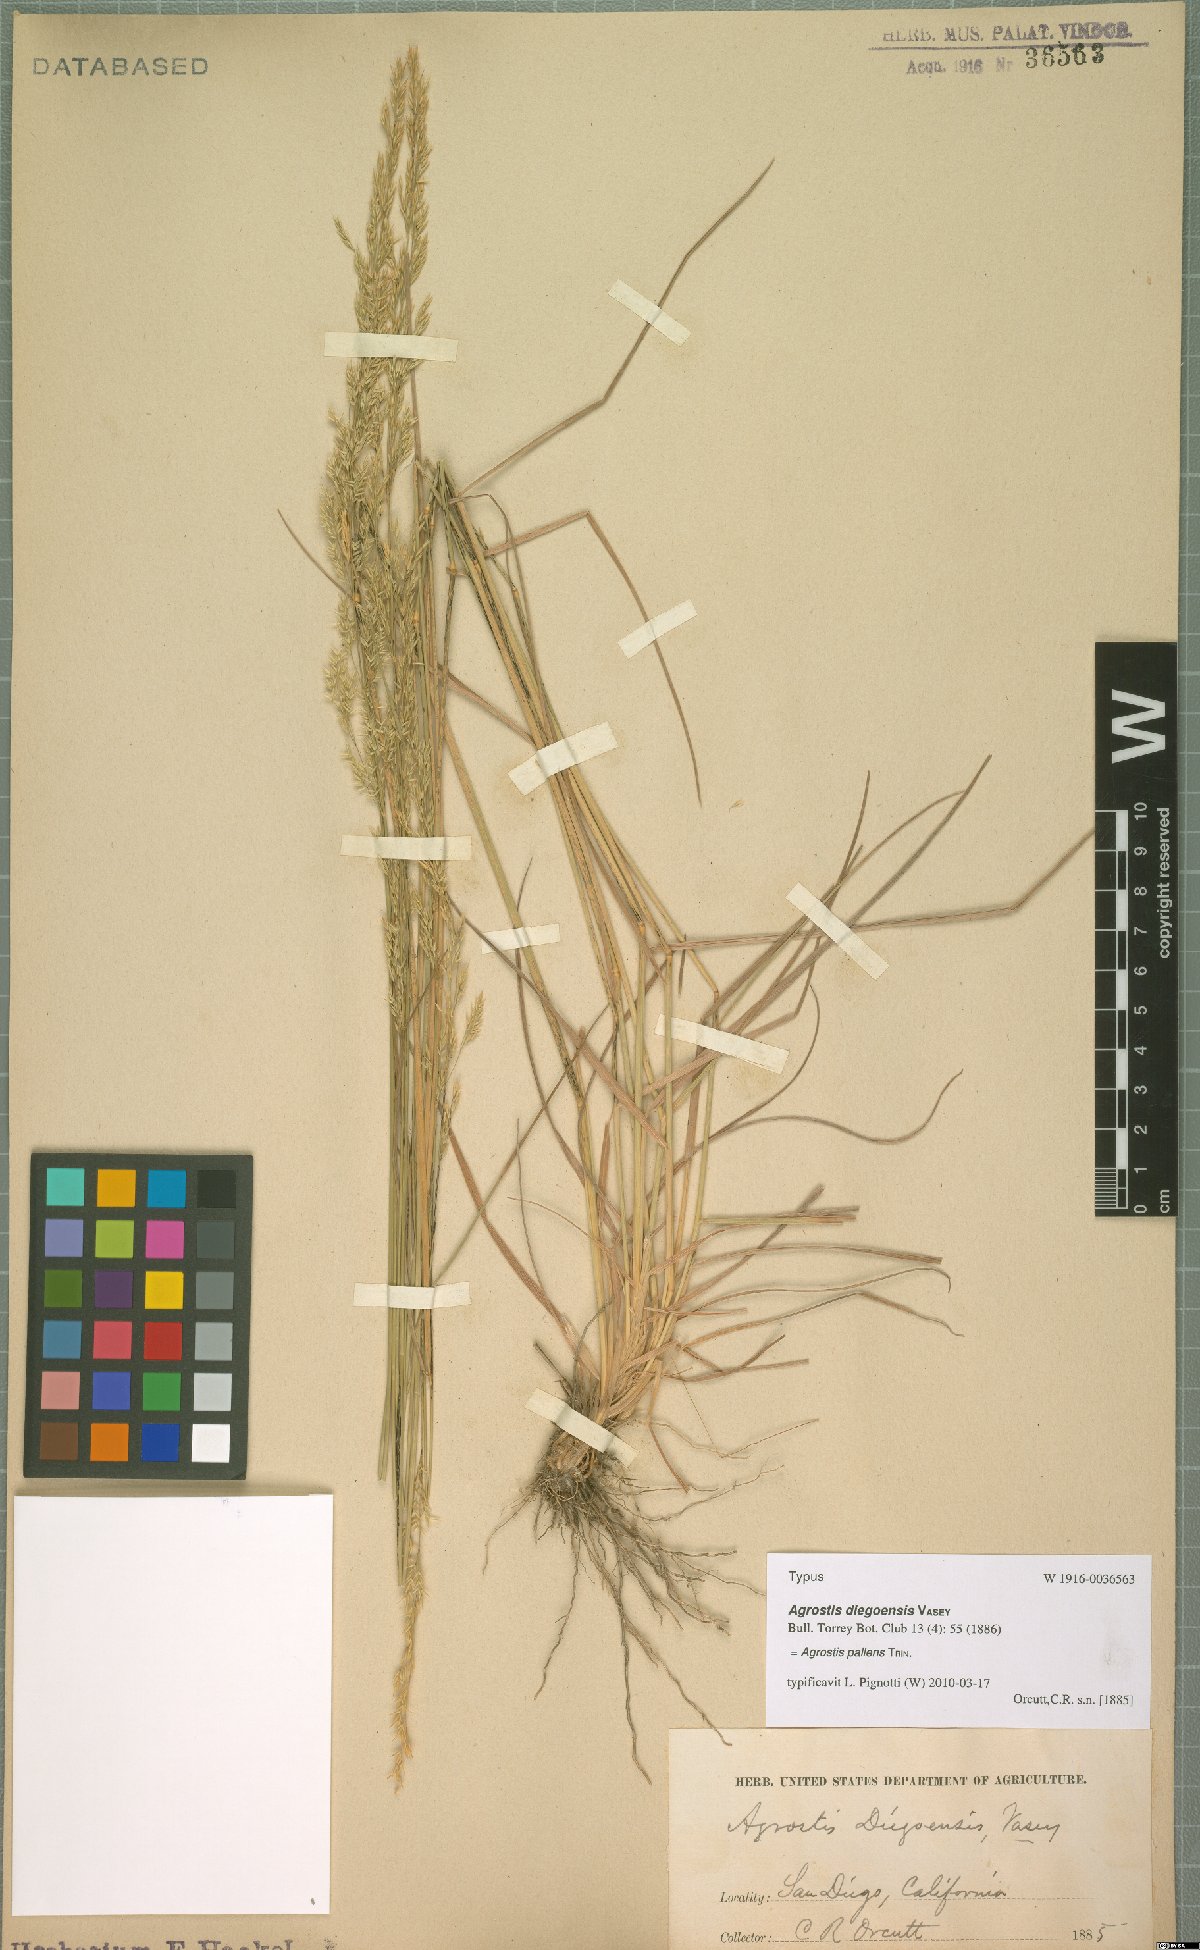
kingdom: Plantae
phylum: Tracheophyta
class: Liliopsida
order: Poales
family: Poaceae
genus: Agrostis
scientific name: Agrostis pallens
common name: Dune bent
